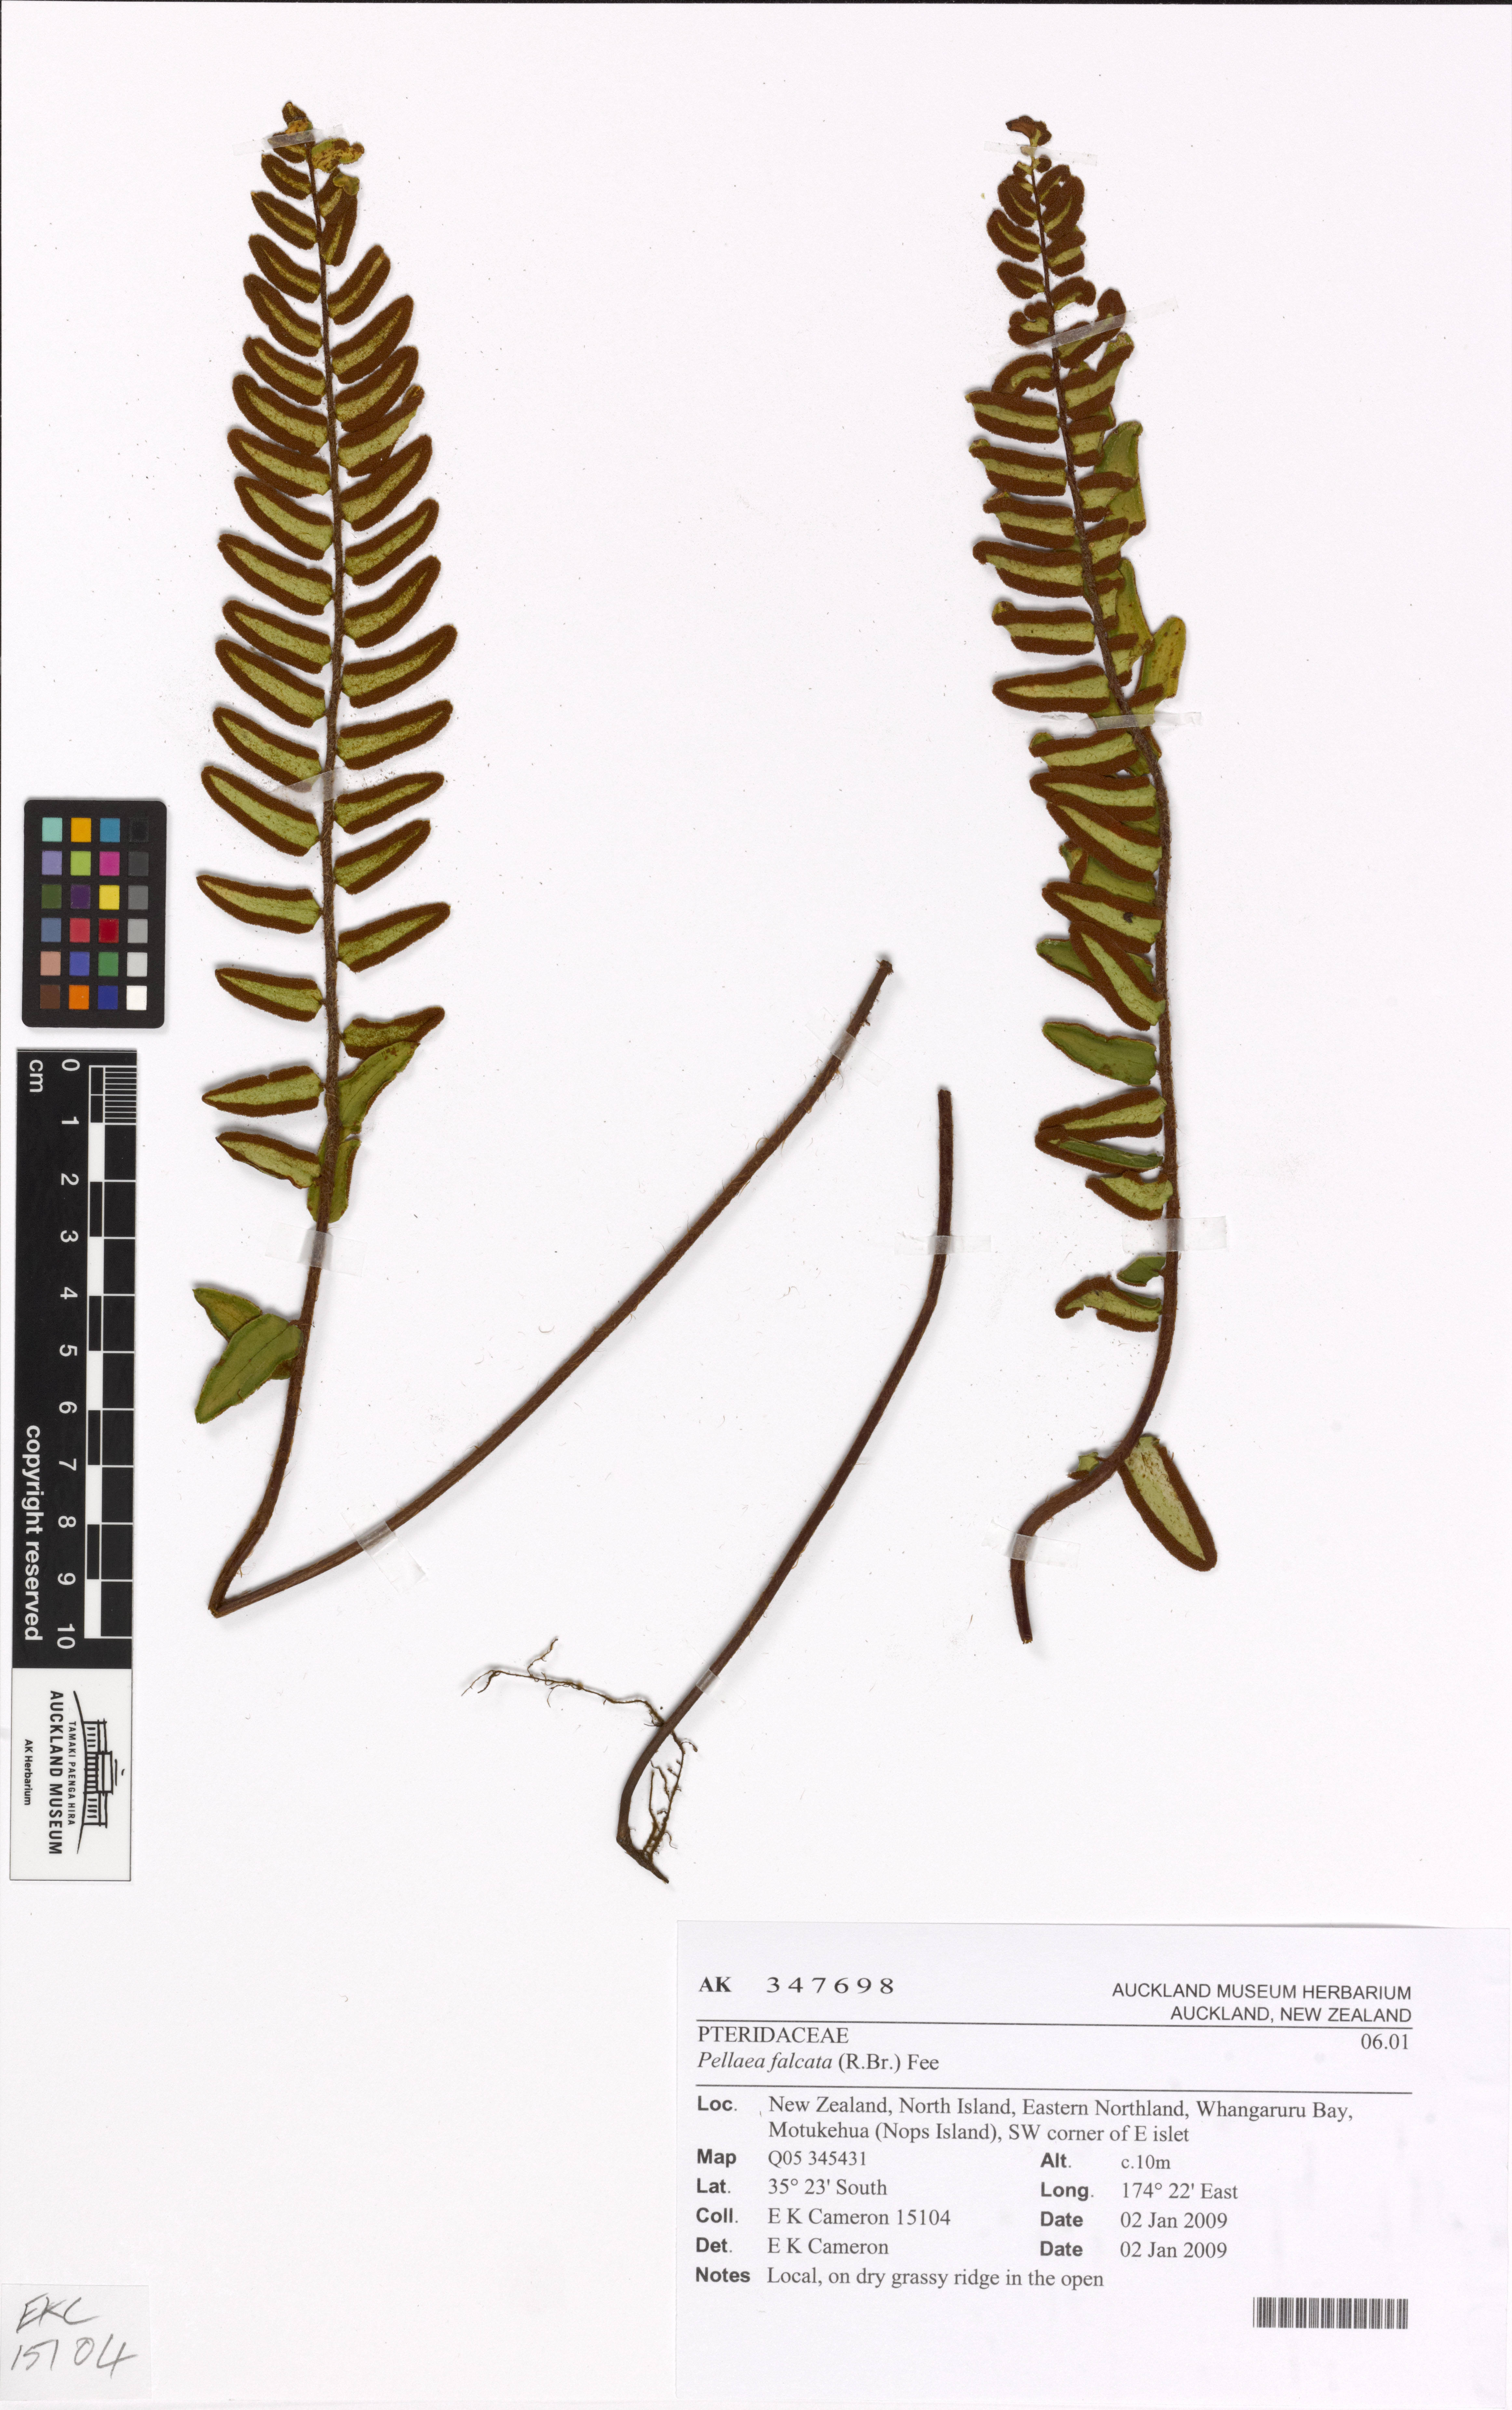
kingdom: Plantae
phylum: Tracheophyta
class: Polypodiopsida
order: Polypodiales
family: Pteridaceae
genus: Pellaea
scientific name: Pellaea calidirupium
